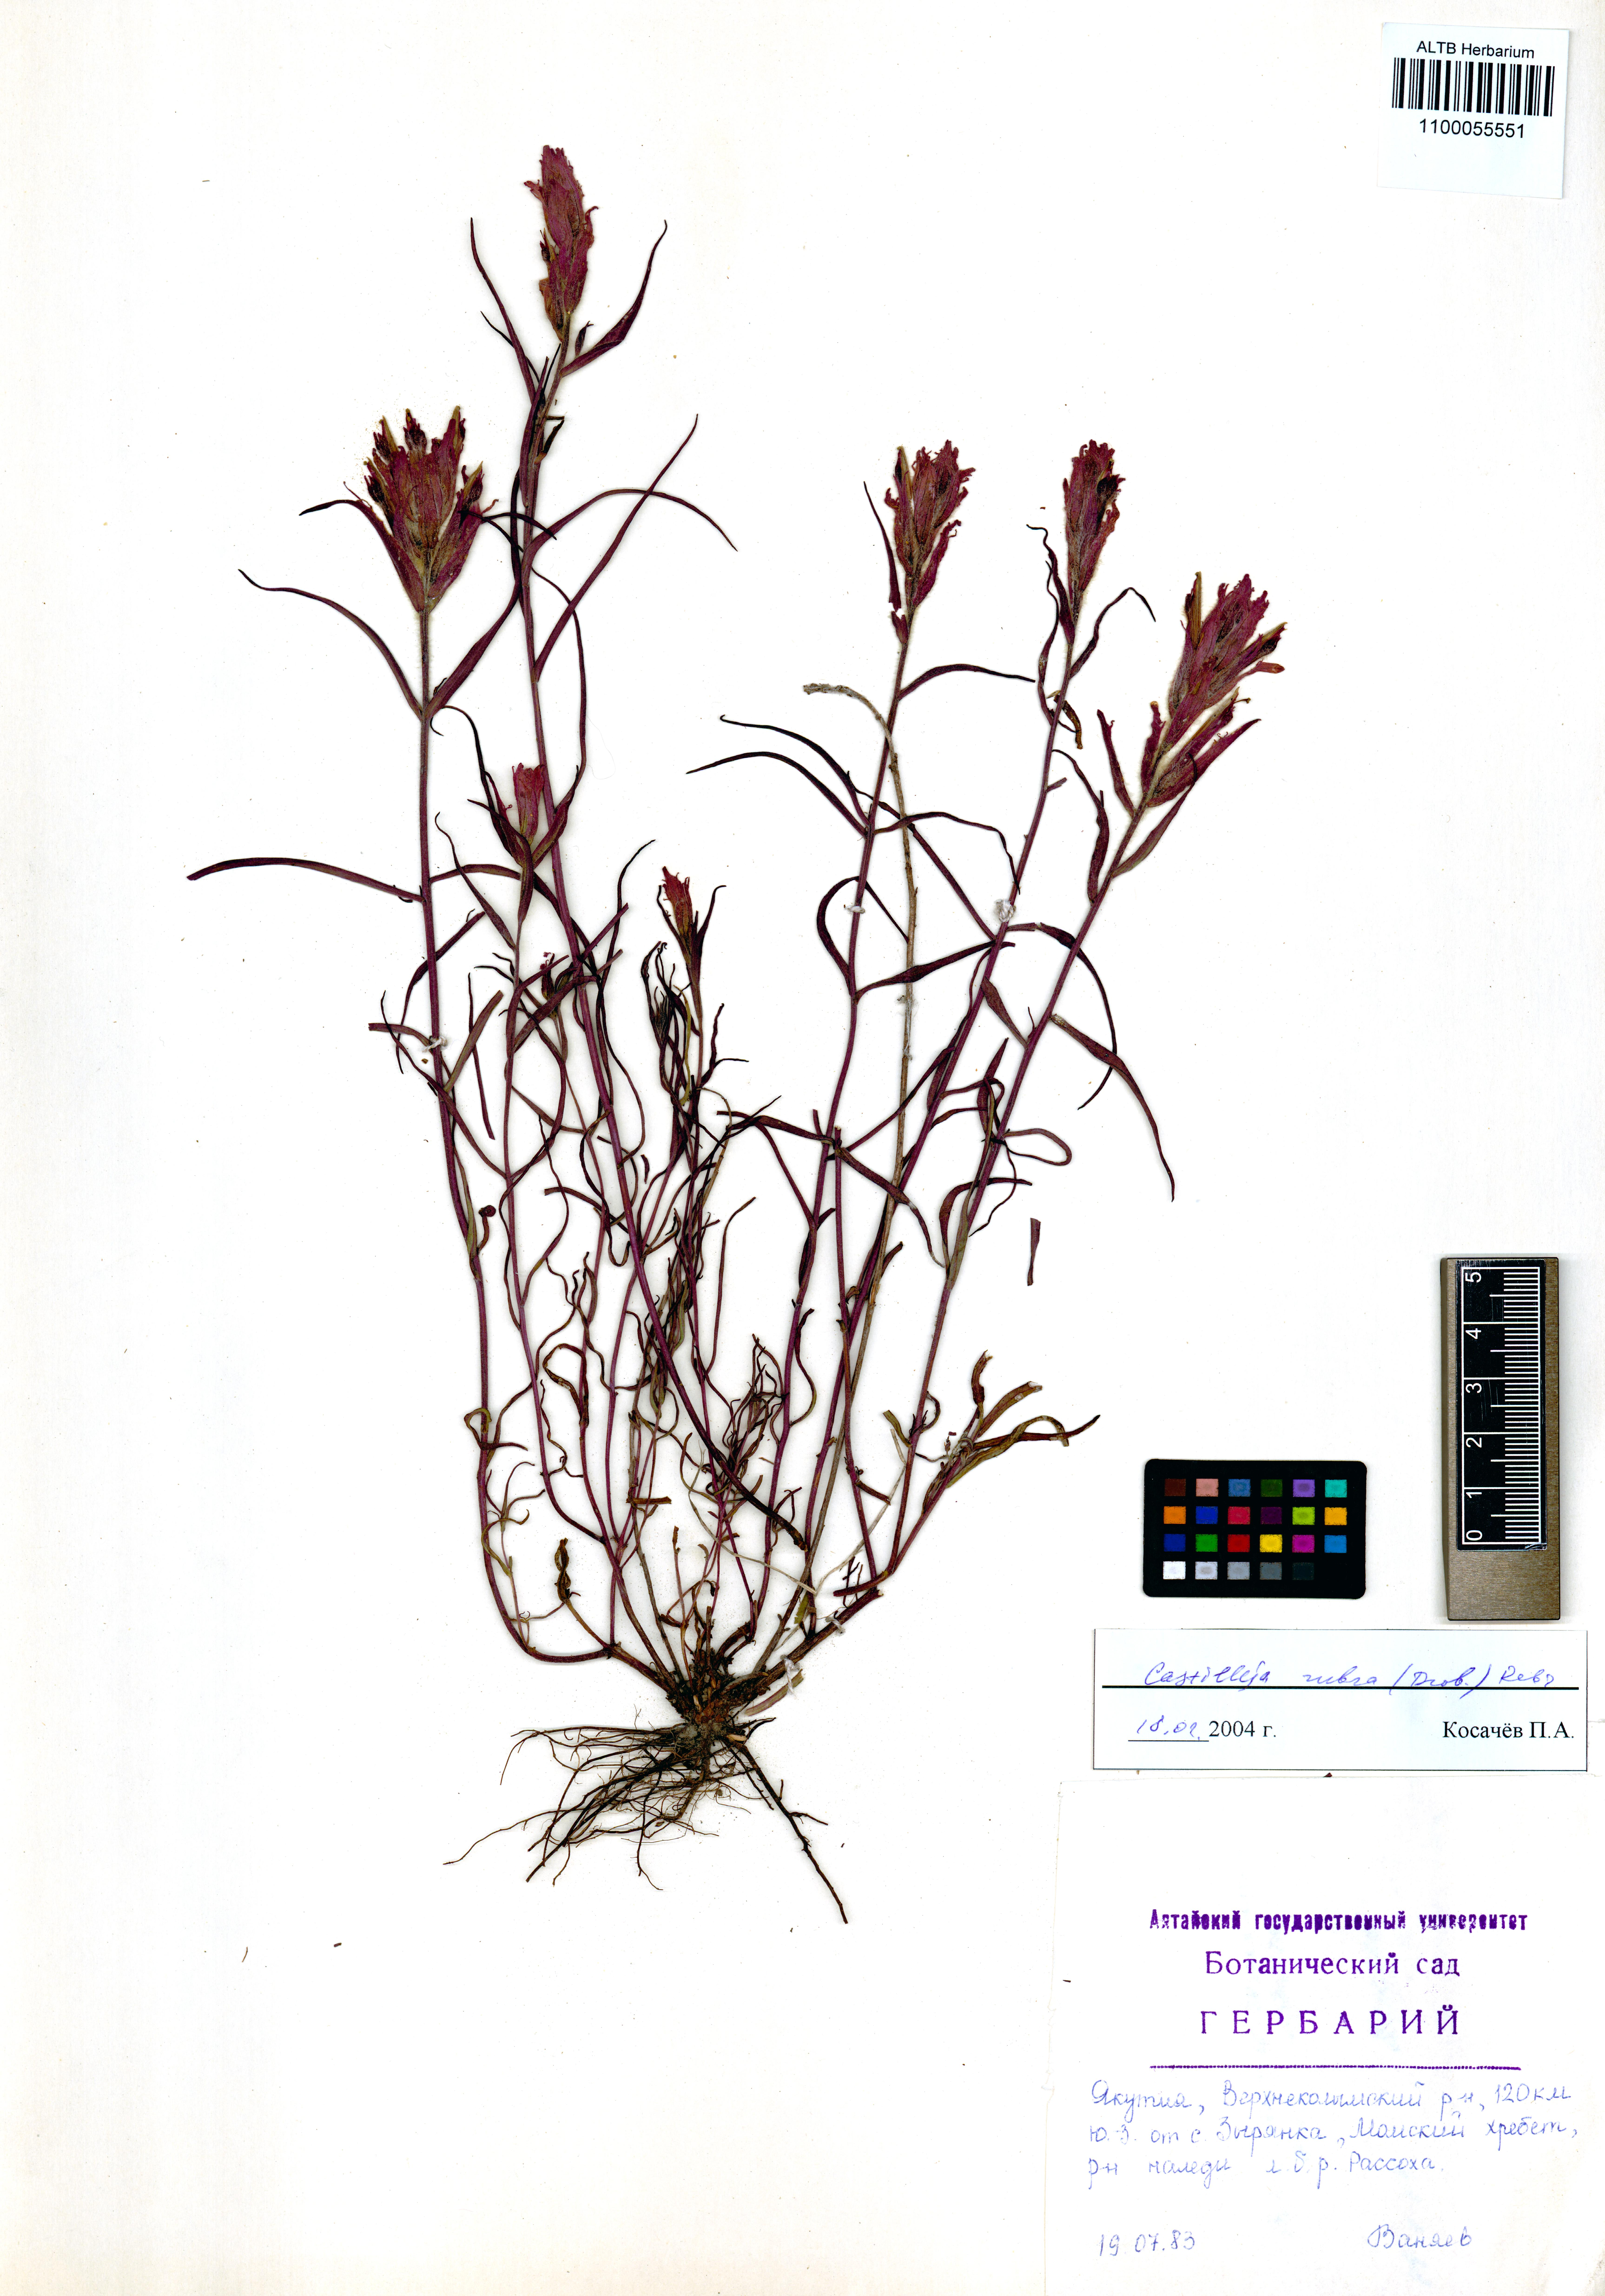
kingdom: Plantae
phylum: Tracheophyta
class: Magnoliopsida
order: Lamiales
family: Orobanchaceae
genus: Castilleja
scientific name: Castilleja rubra
